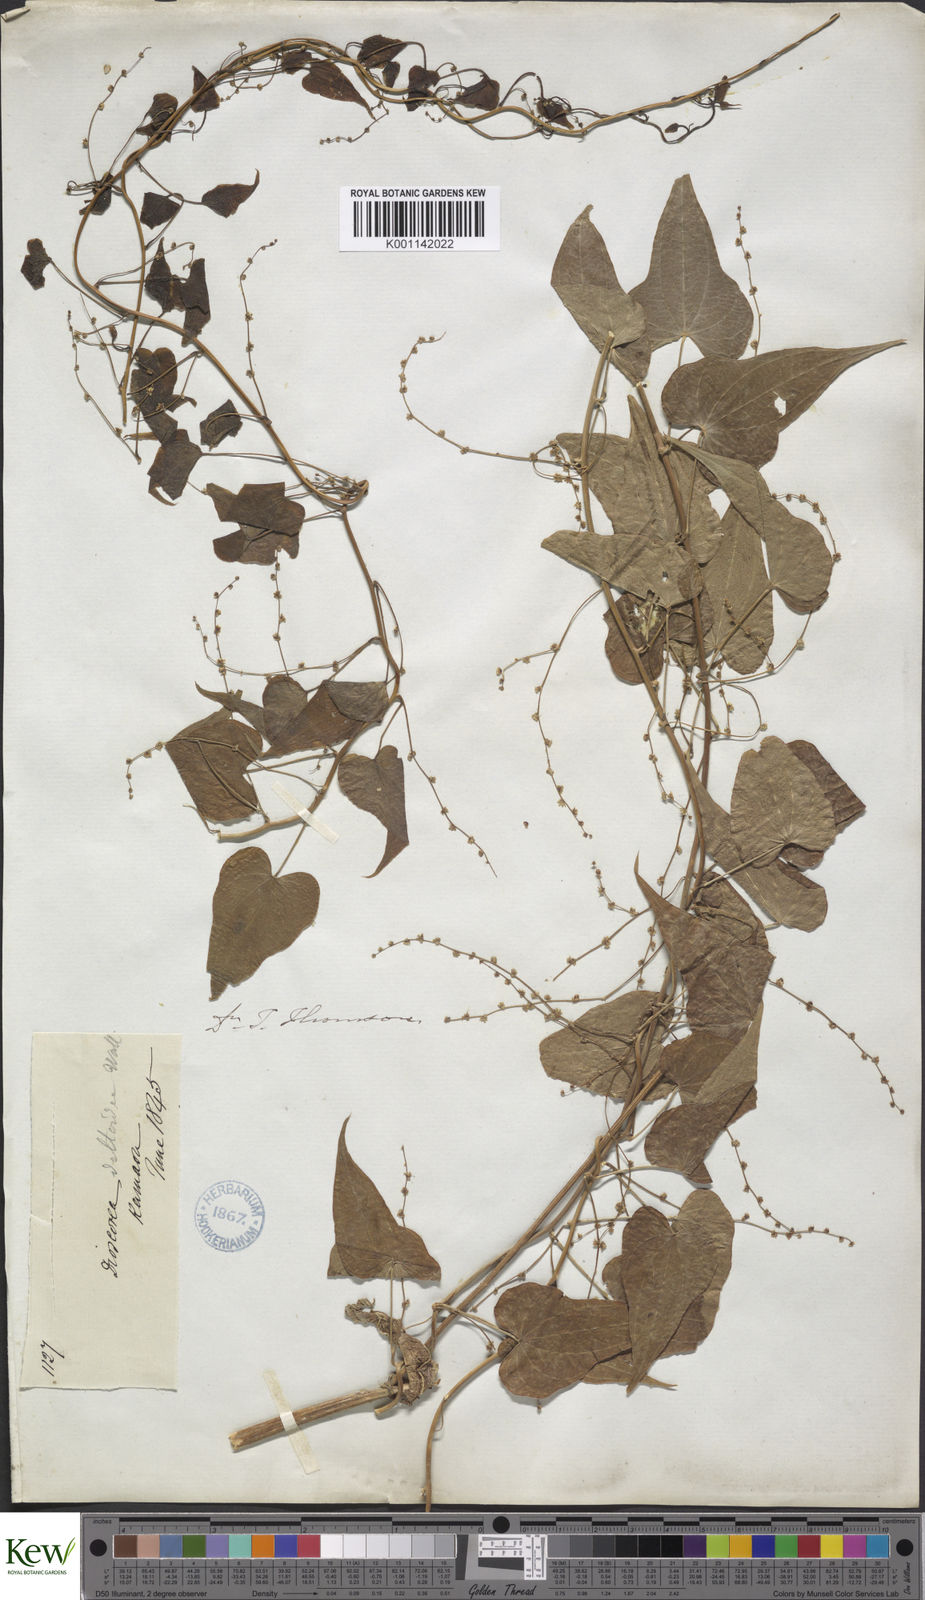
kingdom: Plantae
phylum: Tracheophyta
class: Liliopsida
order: Dioscoreales
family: Dioscoreaceae
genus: Dioscorea
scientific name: Dioscorea deltoidea
